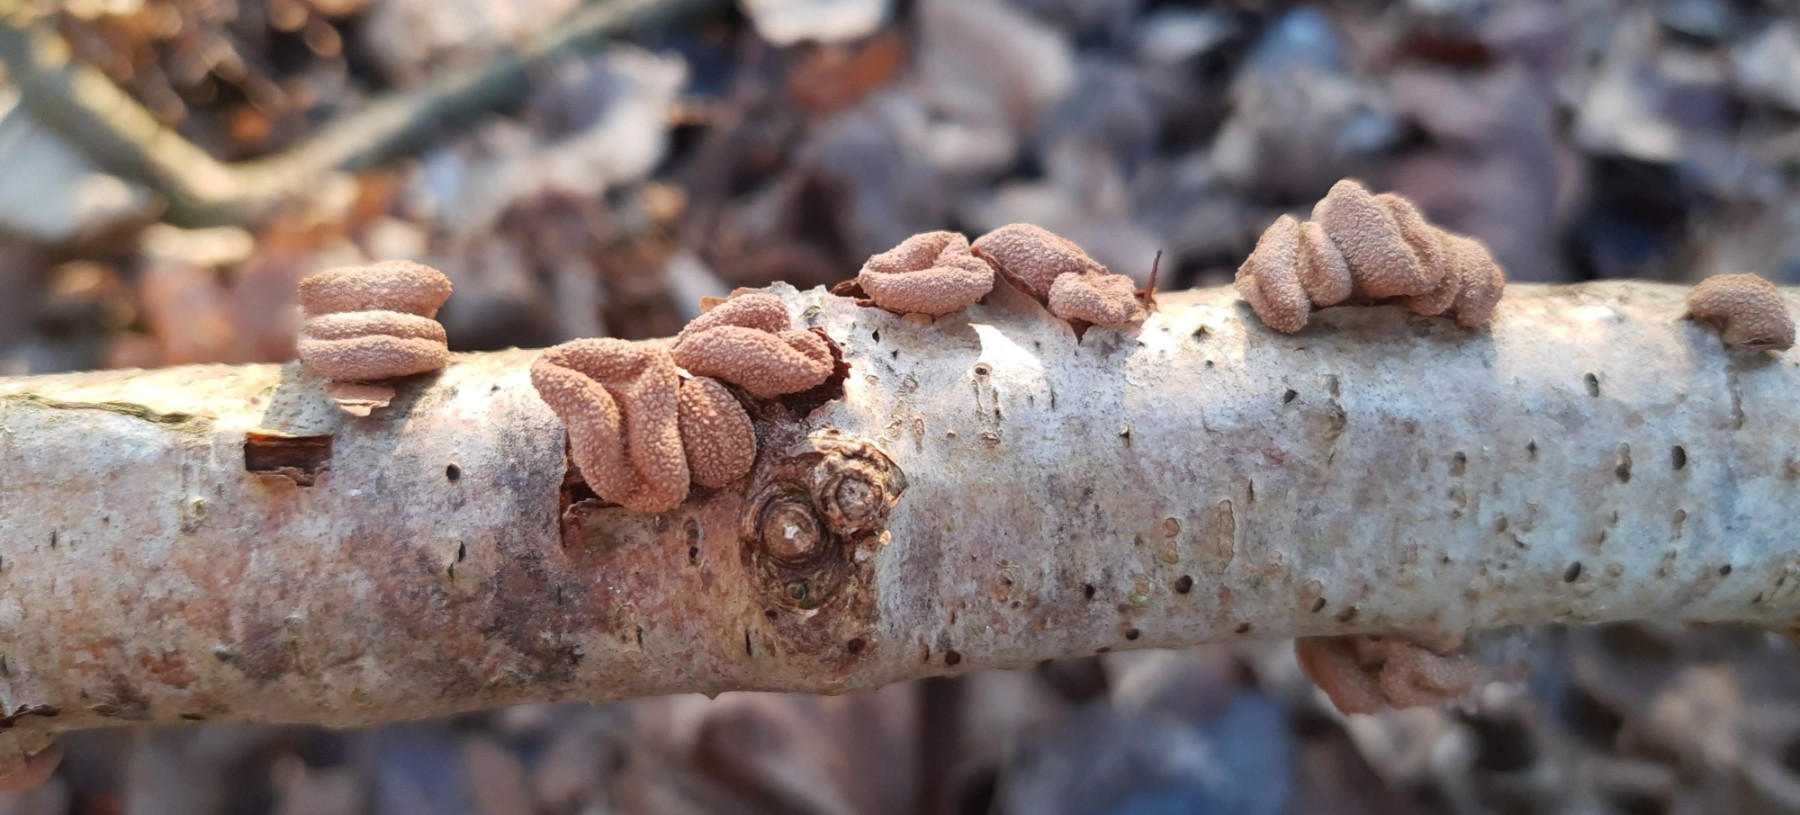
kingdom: Fungi
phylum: Ascomycota
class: Leotiomycetes
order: Helotiales
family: Cenangiaceae
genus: Encoelia
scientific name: Encoelia furfuracea
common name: hassel-læderskive
